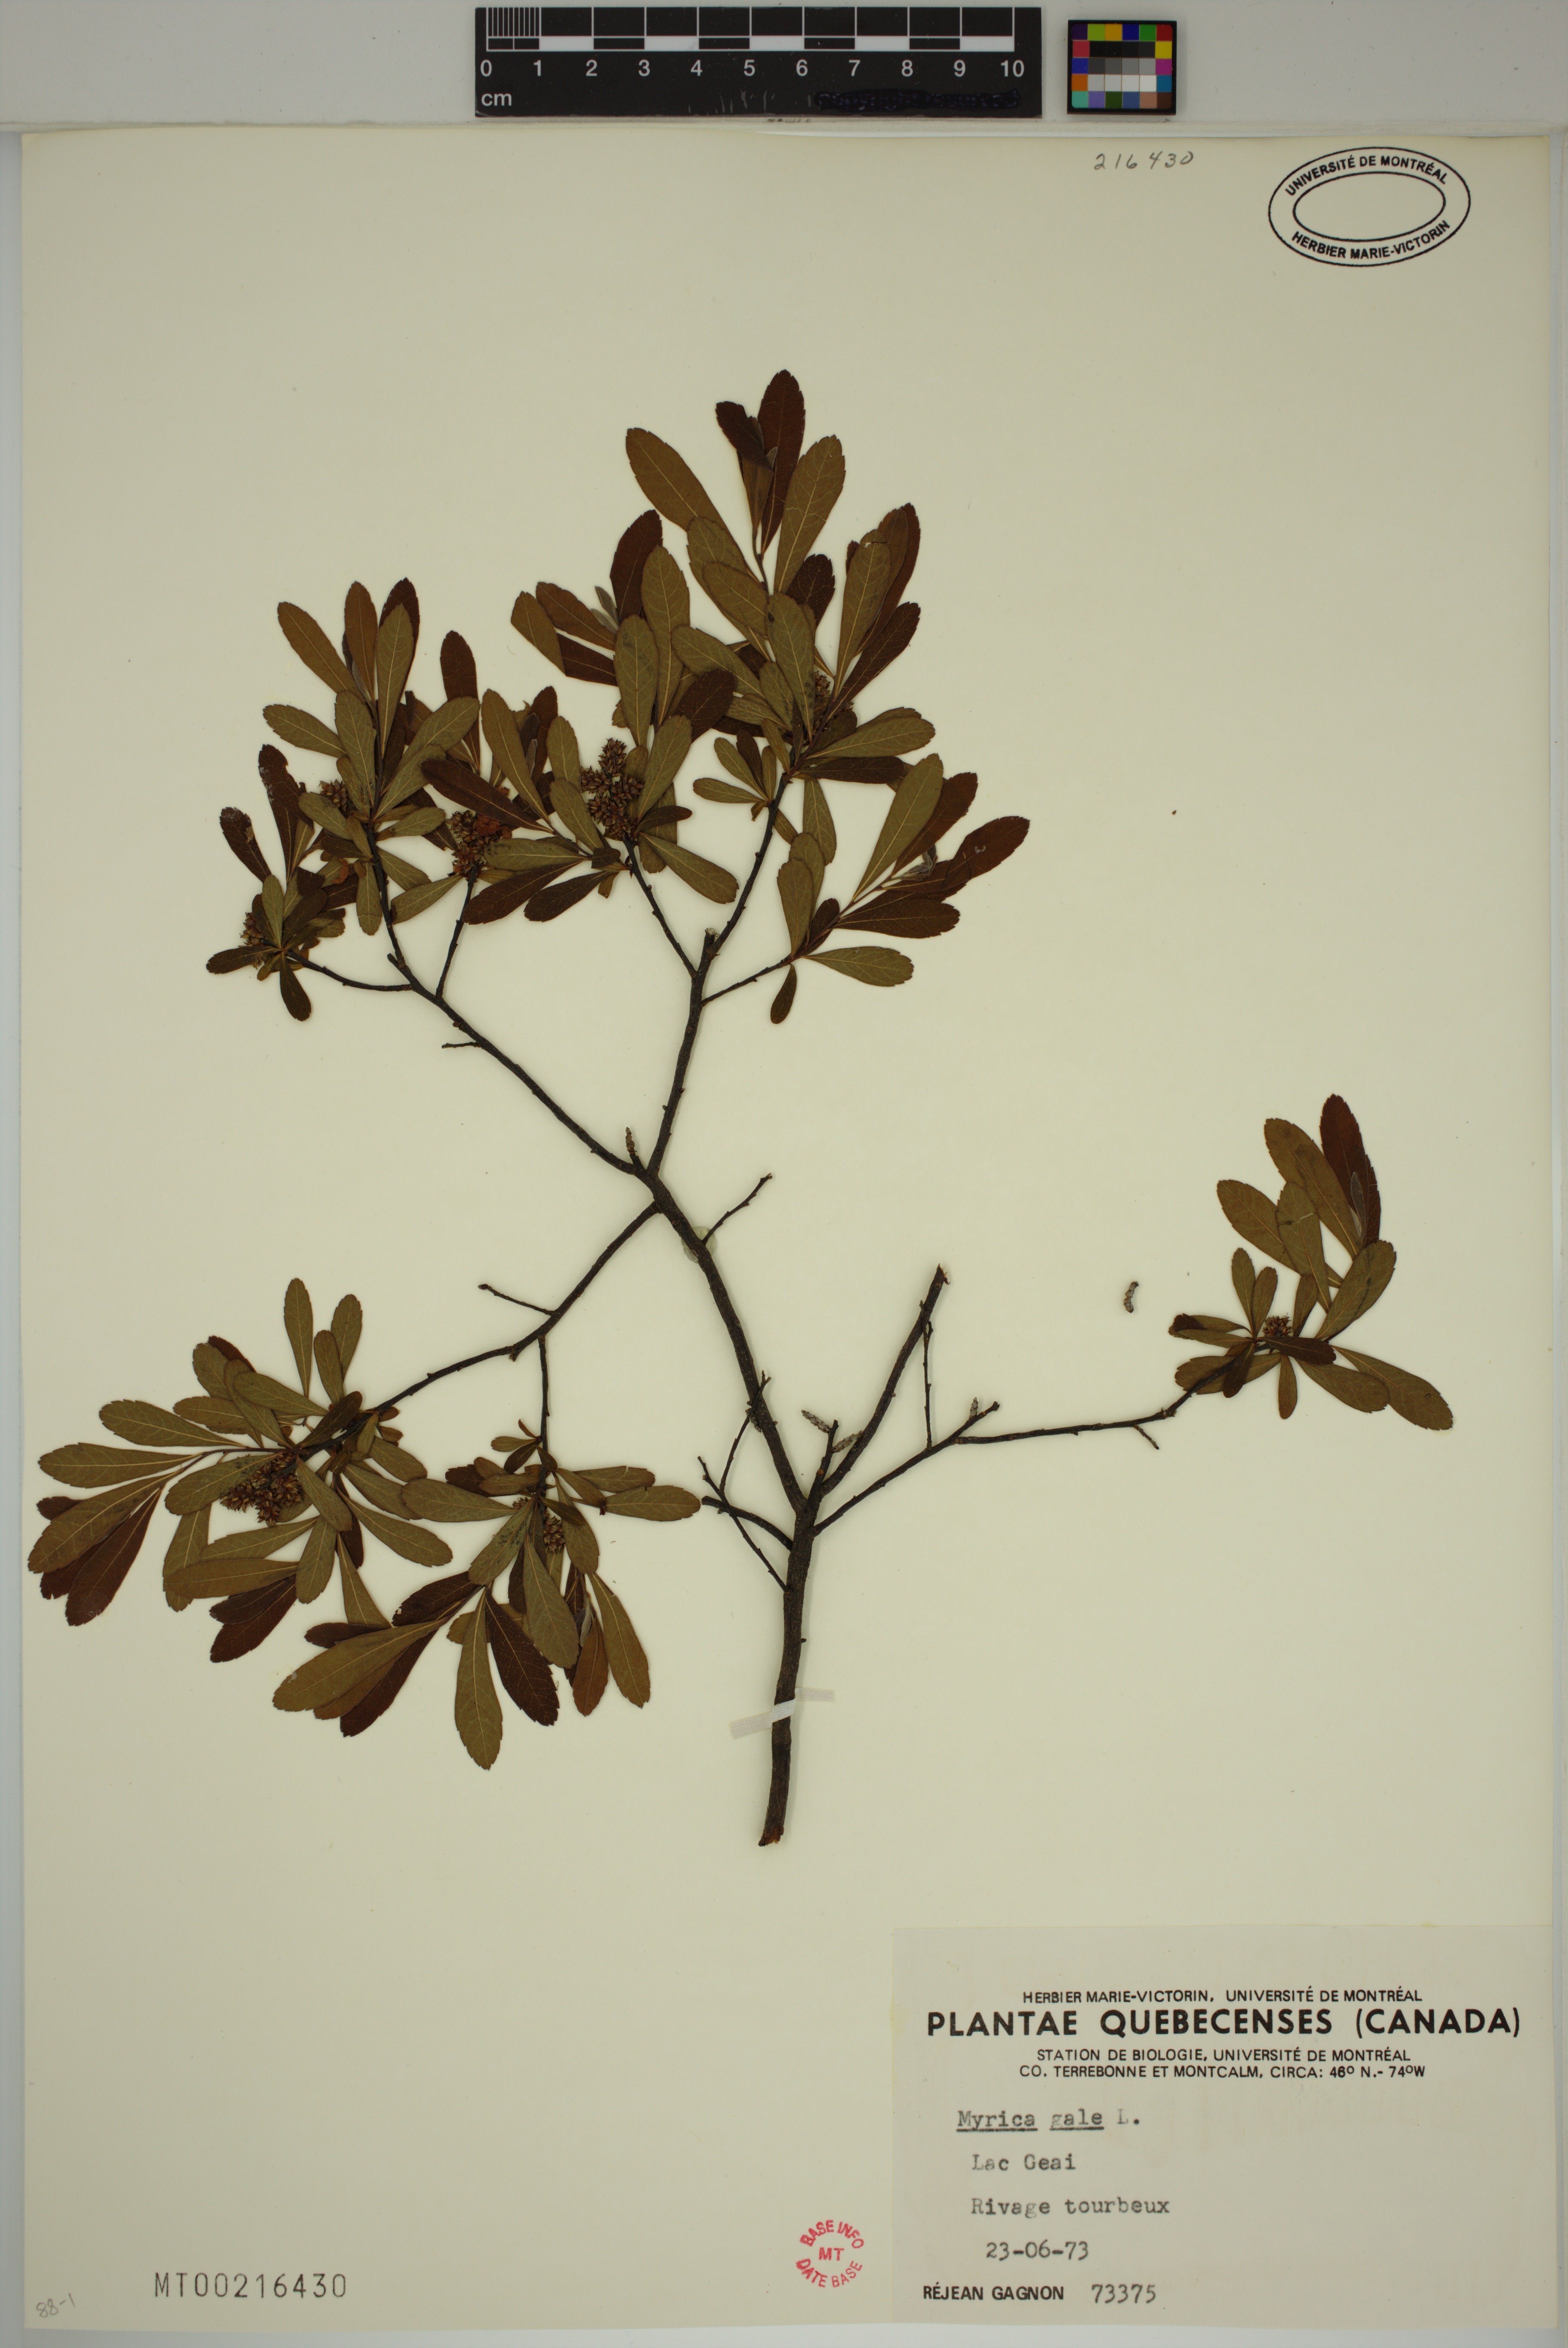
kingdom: Plantae
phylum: Tracheophyta
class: Magnoliopsida
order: Fagales
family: Myricaceae
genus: Myrica
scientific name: Myrica gale
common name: Sweet gale
